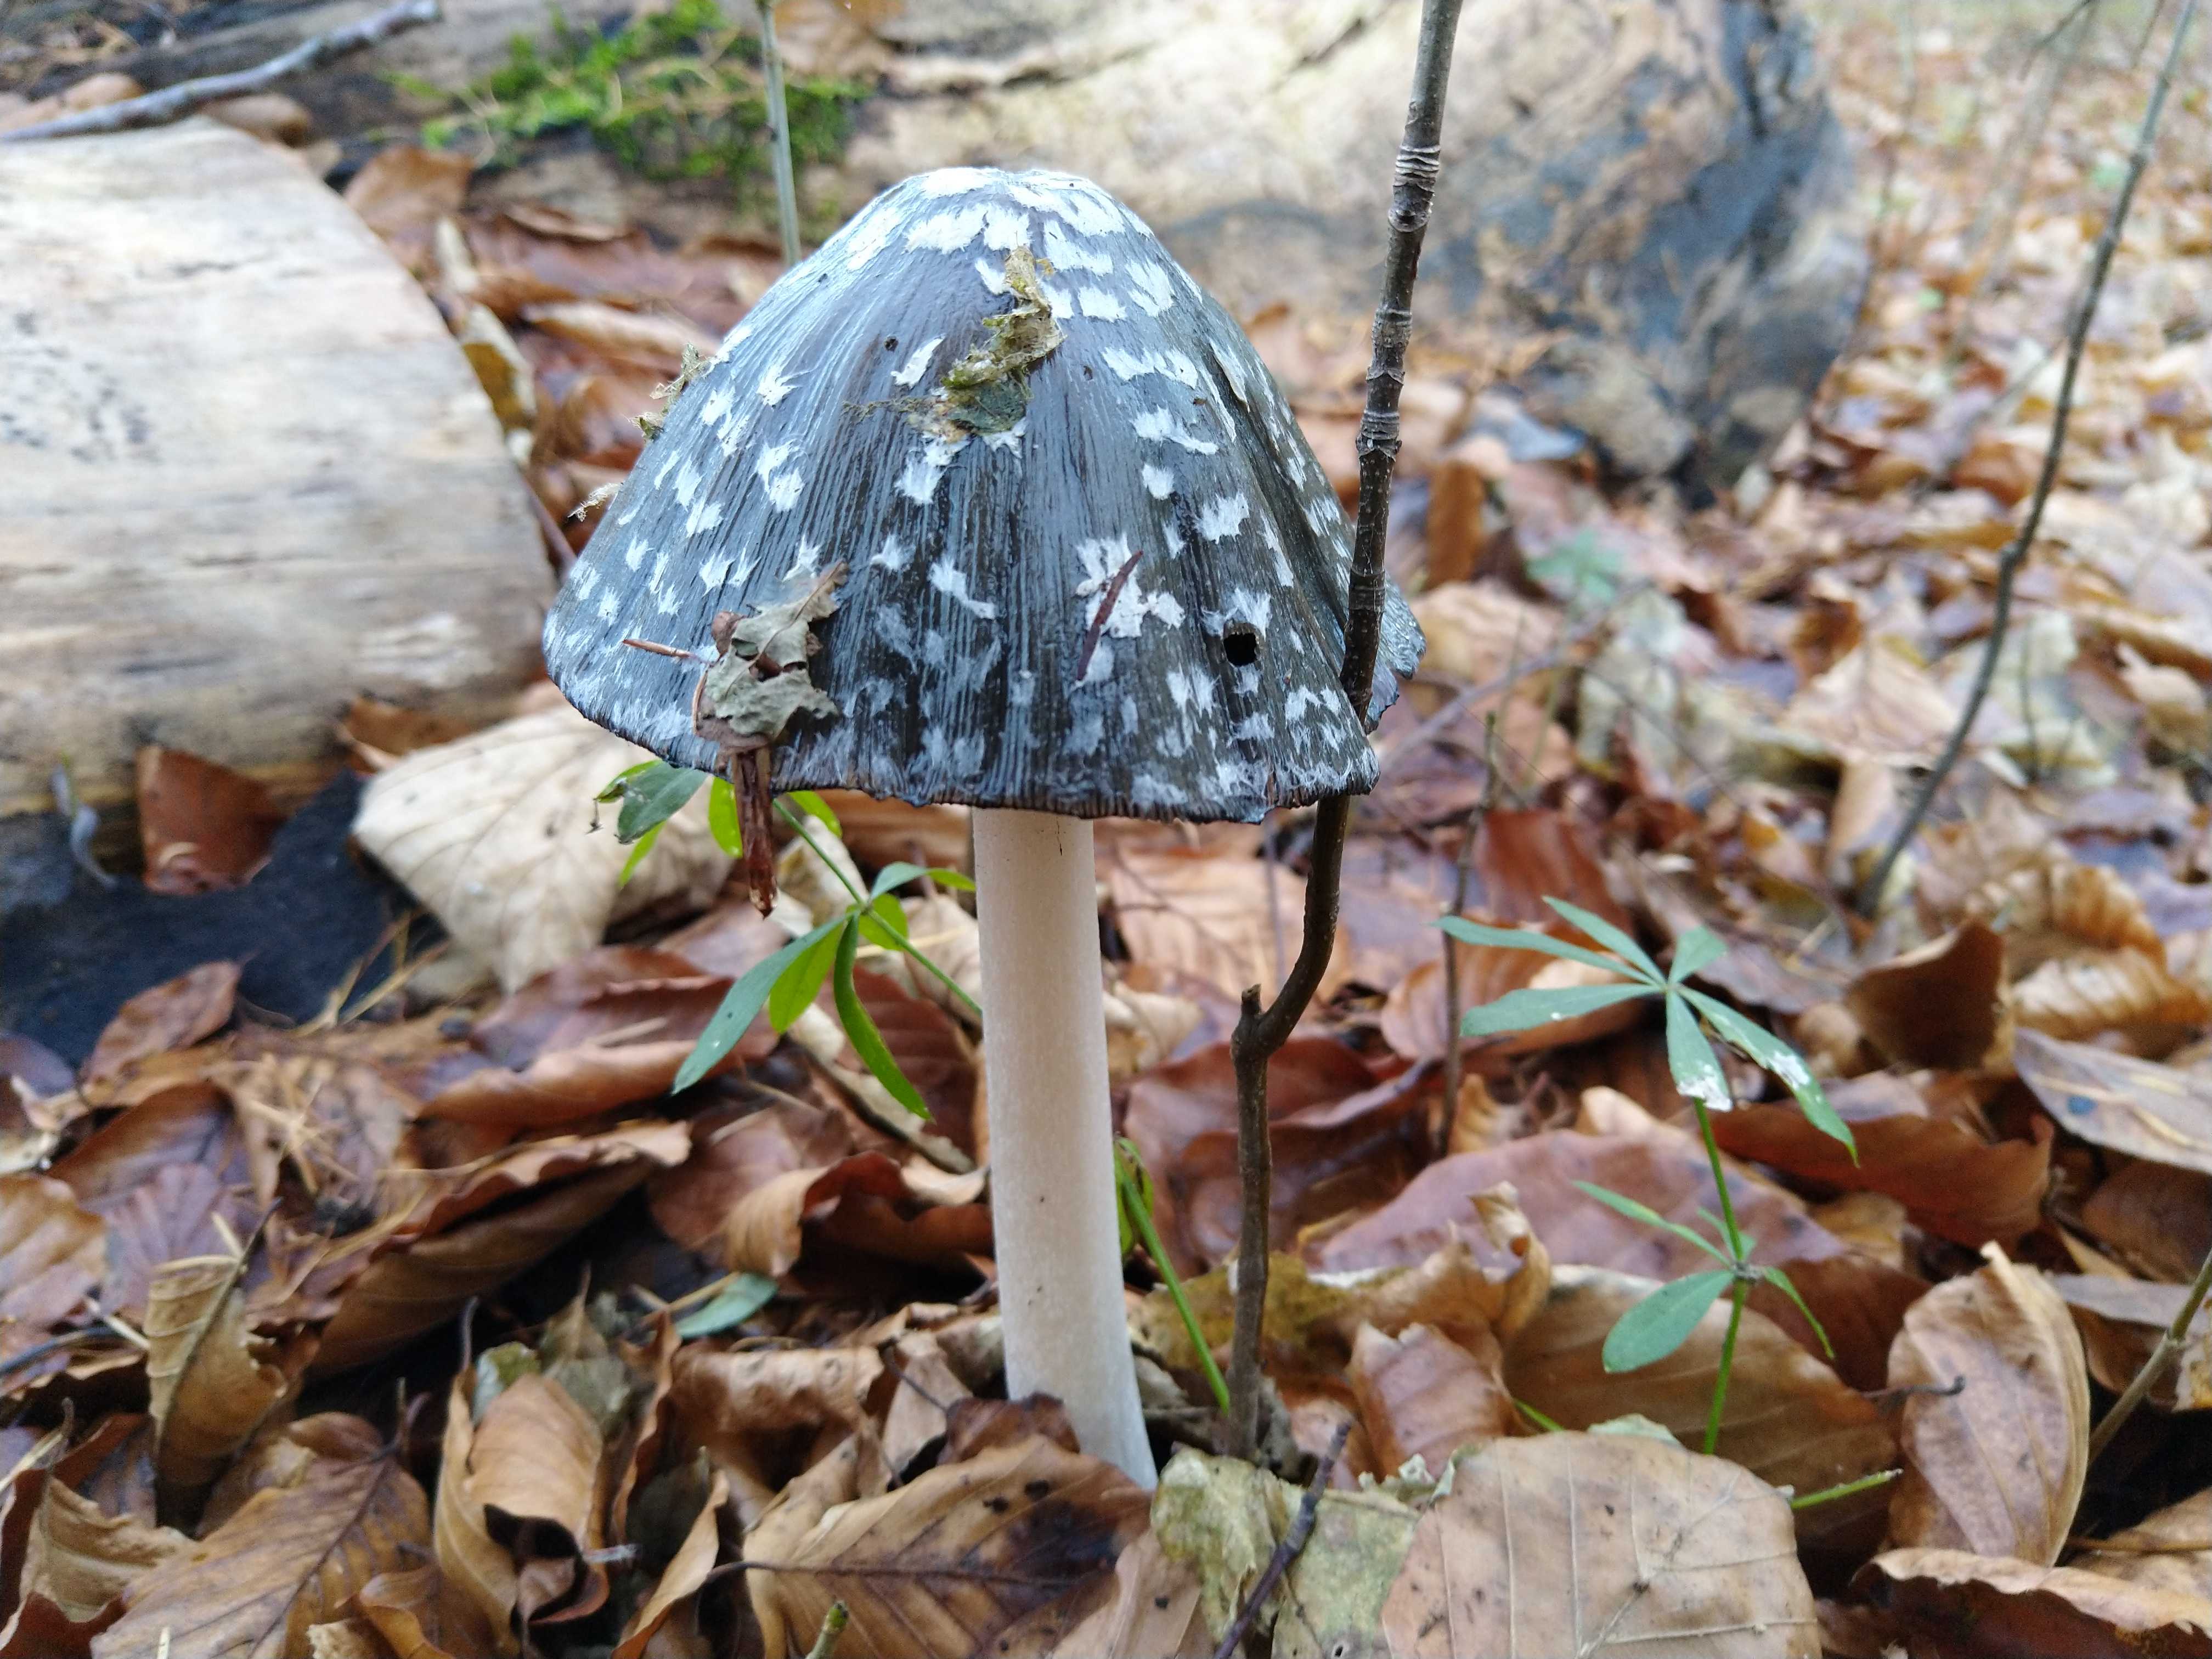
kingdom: Fungi
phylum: Basidiomycota
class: Agaricomycetes
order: Agaricales
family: Psathyrellaceae
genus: Coprinopsis
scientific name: Coprinopsis picacea
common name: skade-blækhat
